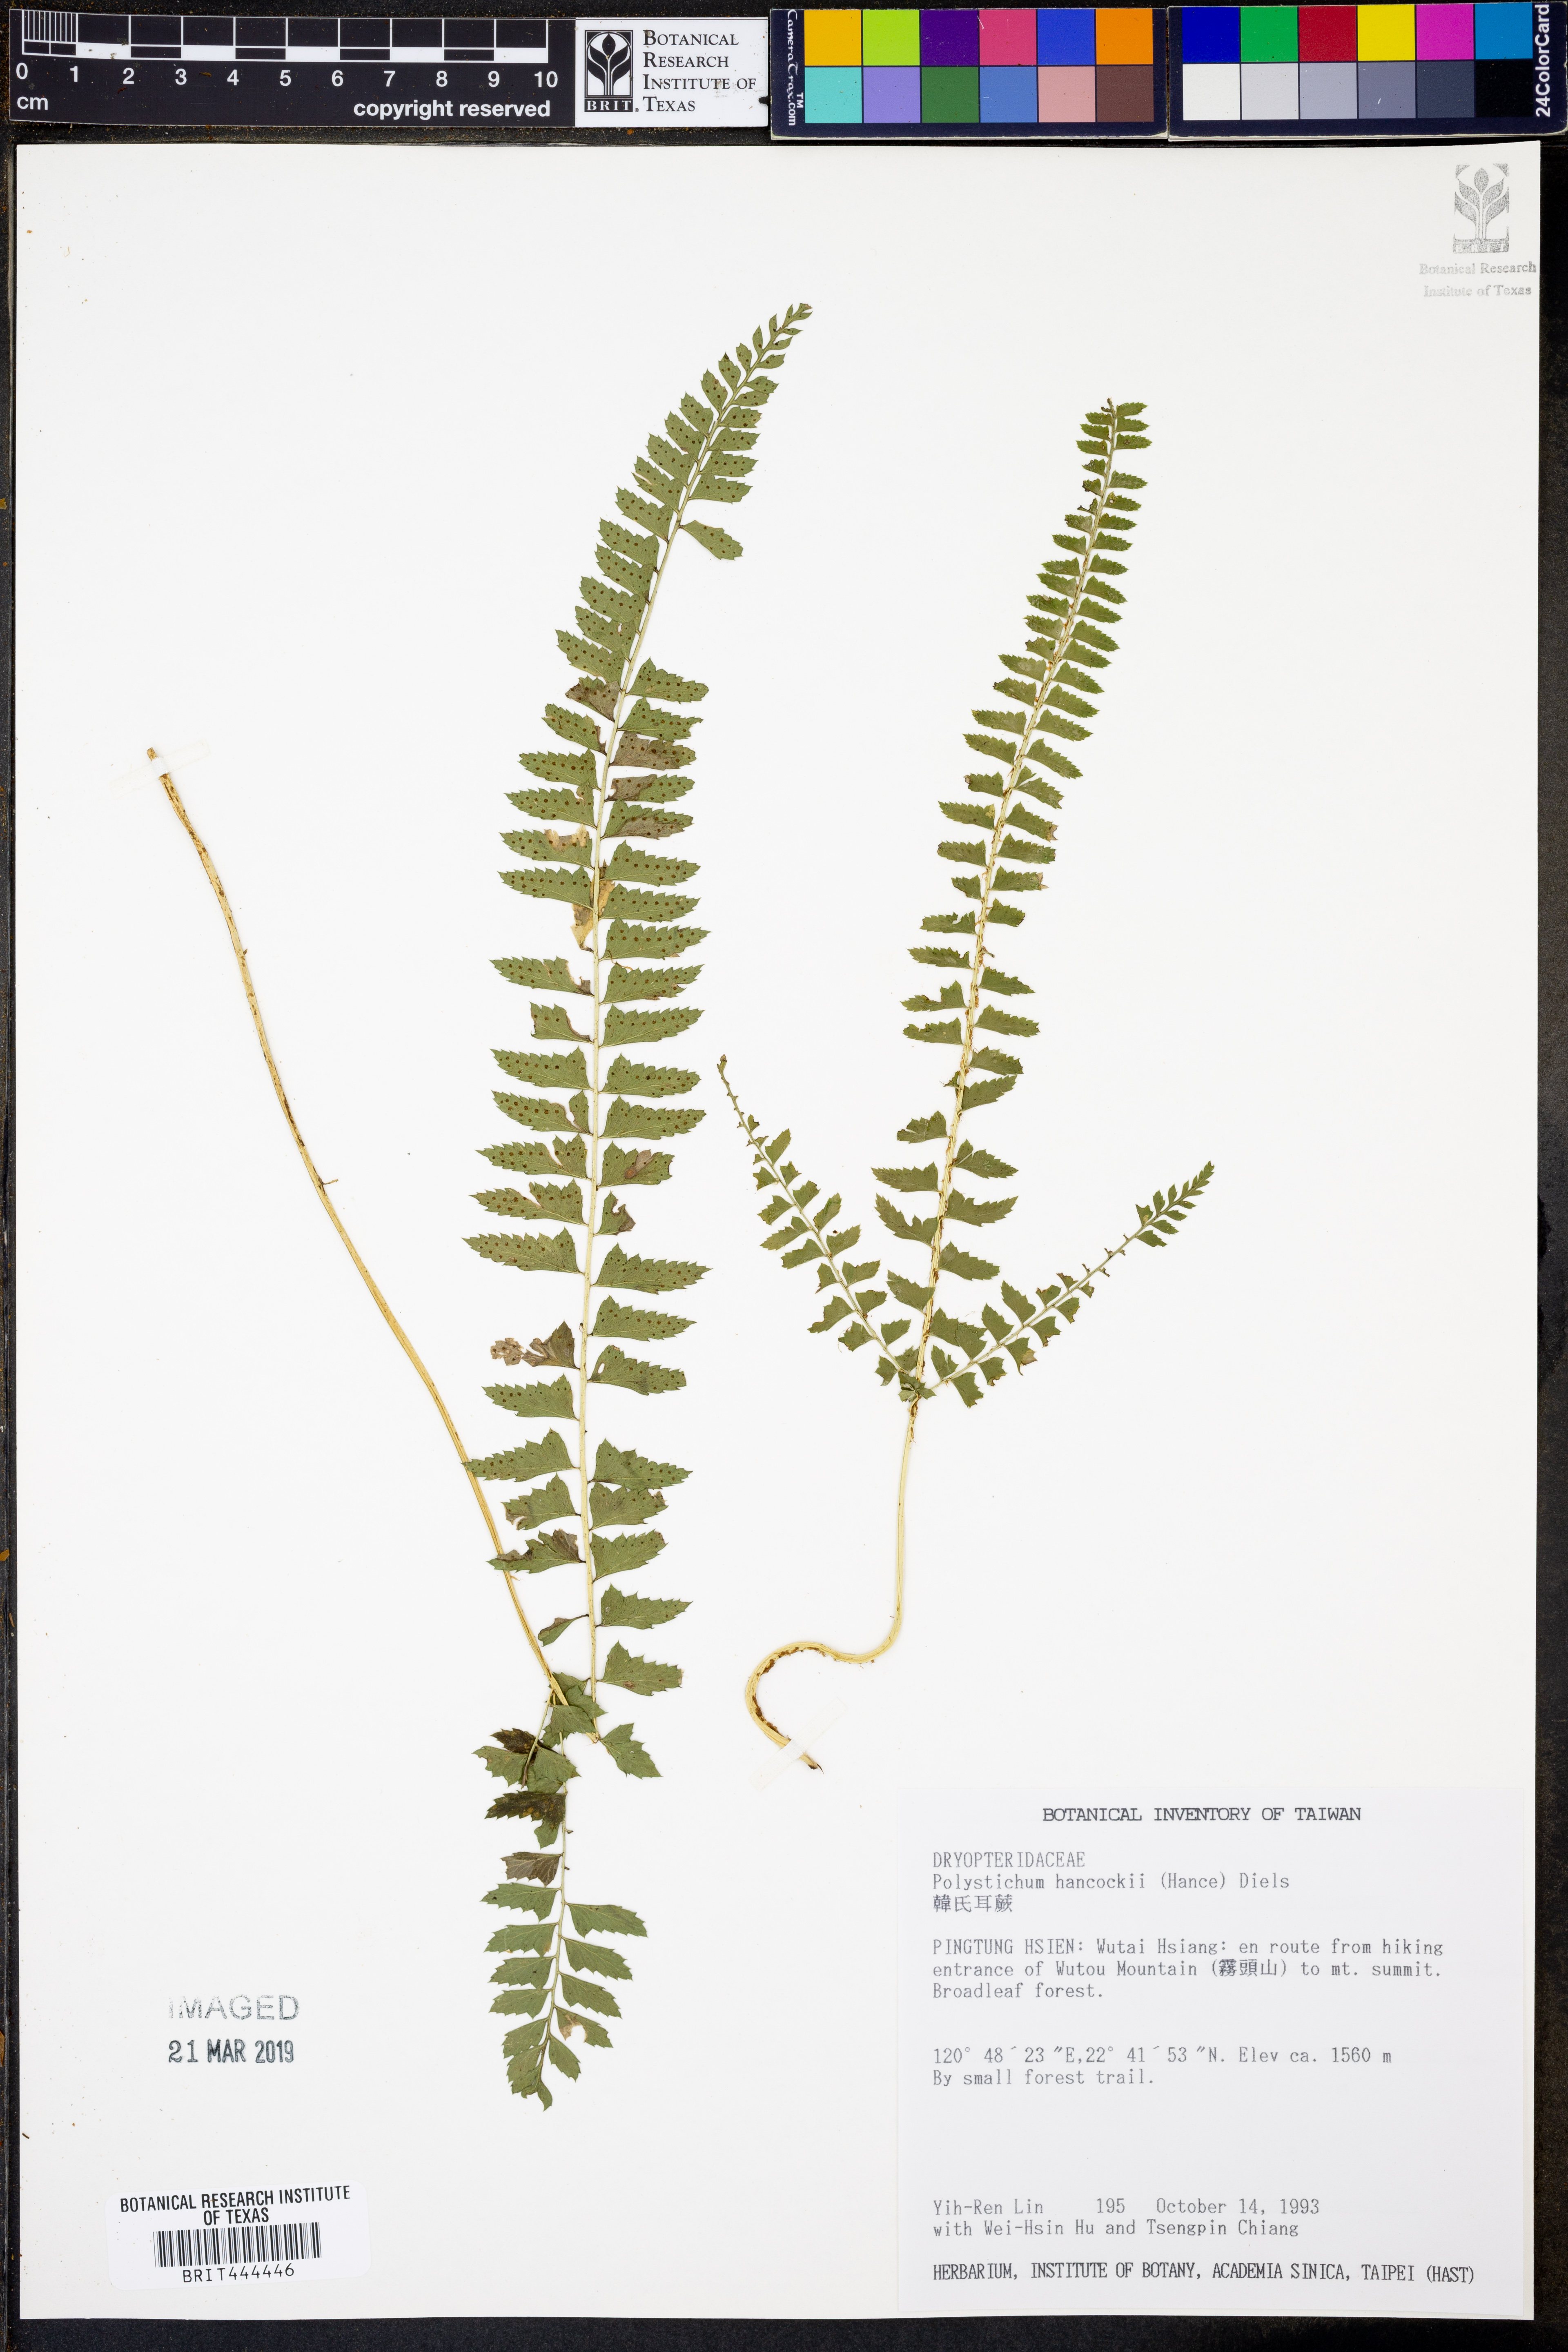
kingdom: Plantae
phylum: Tracheophyta
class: Polypodiopsida
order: Polypodiales
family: Dryopteridaceae
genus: Polystichum
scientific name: Polystichum hancockii
